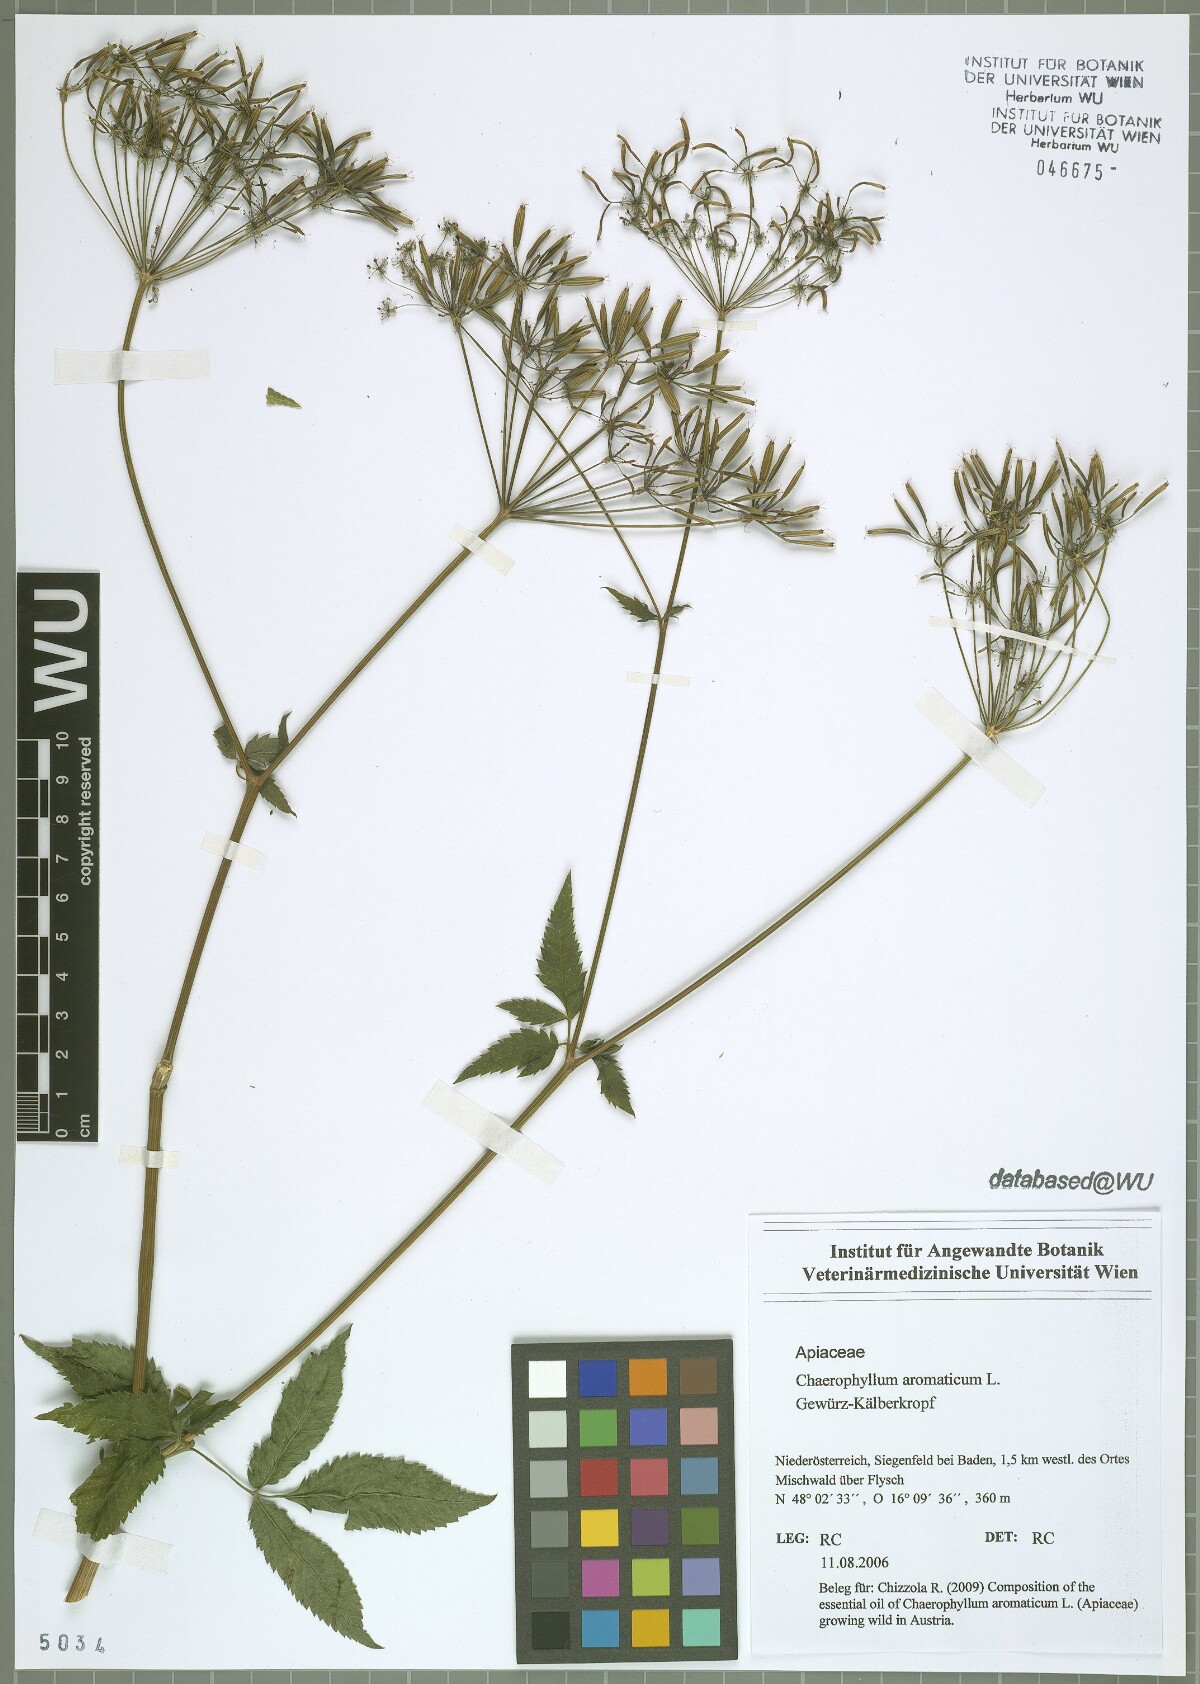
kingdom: Plantae
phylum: Tracheophyta
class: Magnoliopsida
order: Apiales
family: Apiaceae
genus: Chaerophyllum
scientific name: Chaerophyllum aromaticum
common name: Broadleaf chervil
